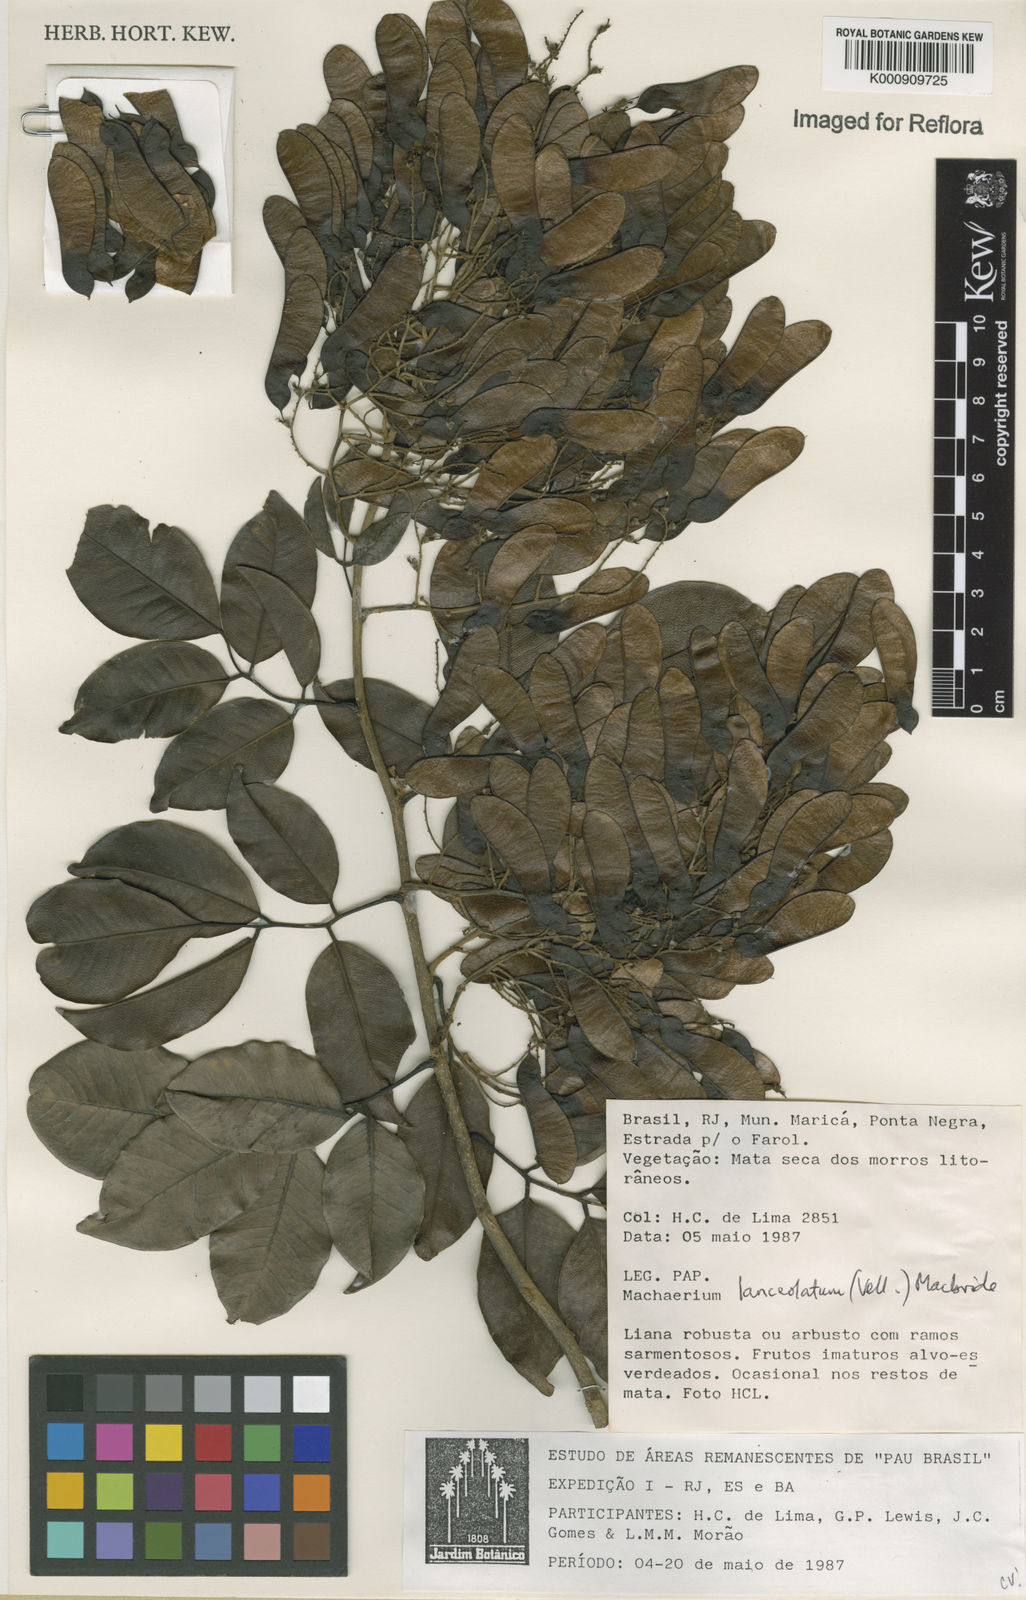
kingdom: Plantae
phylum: Tracheophyta
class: Magnoliopsida
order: Fabales
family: Fabaceae
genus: Machaerium
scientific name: Machaerium lanceolatum
